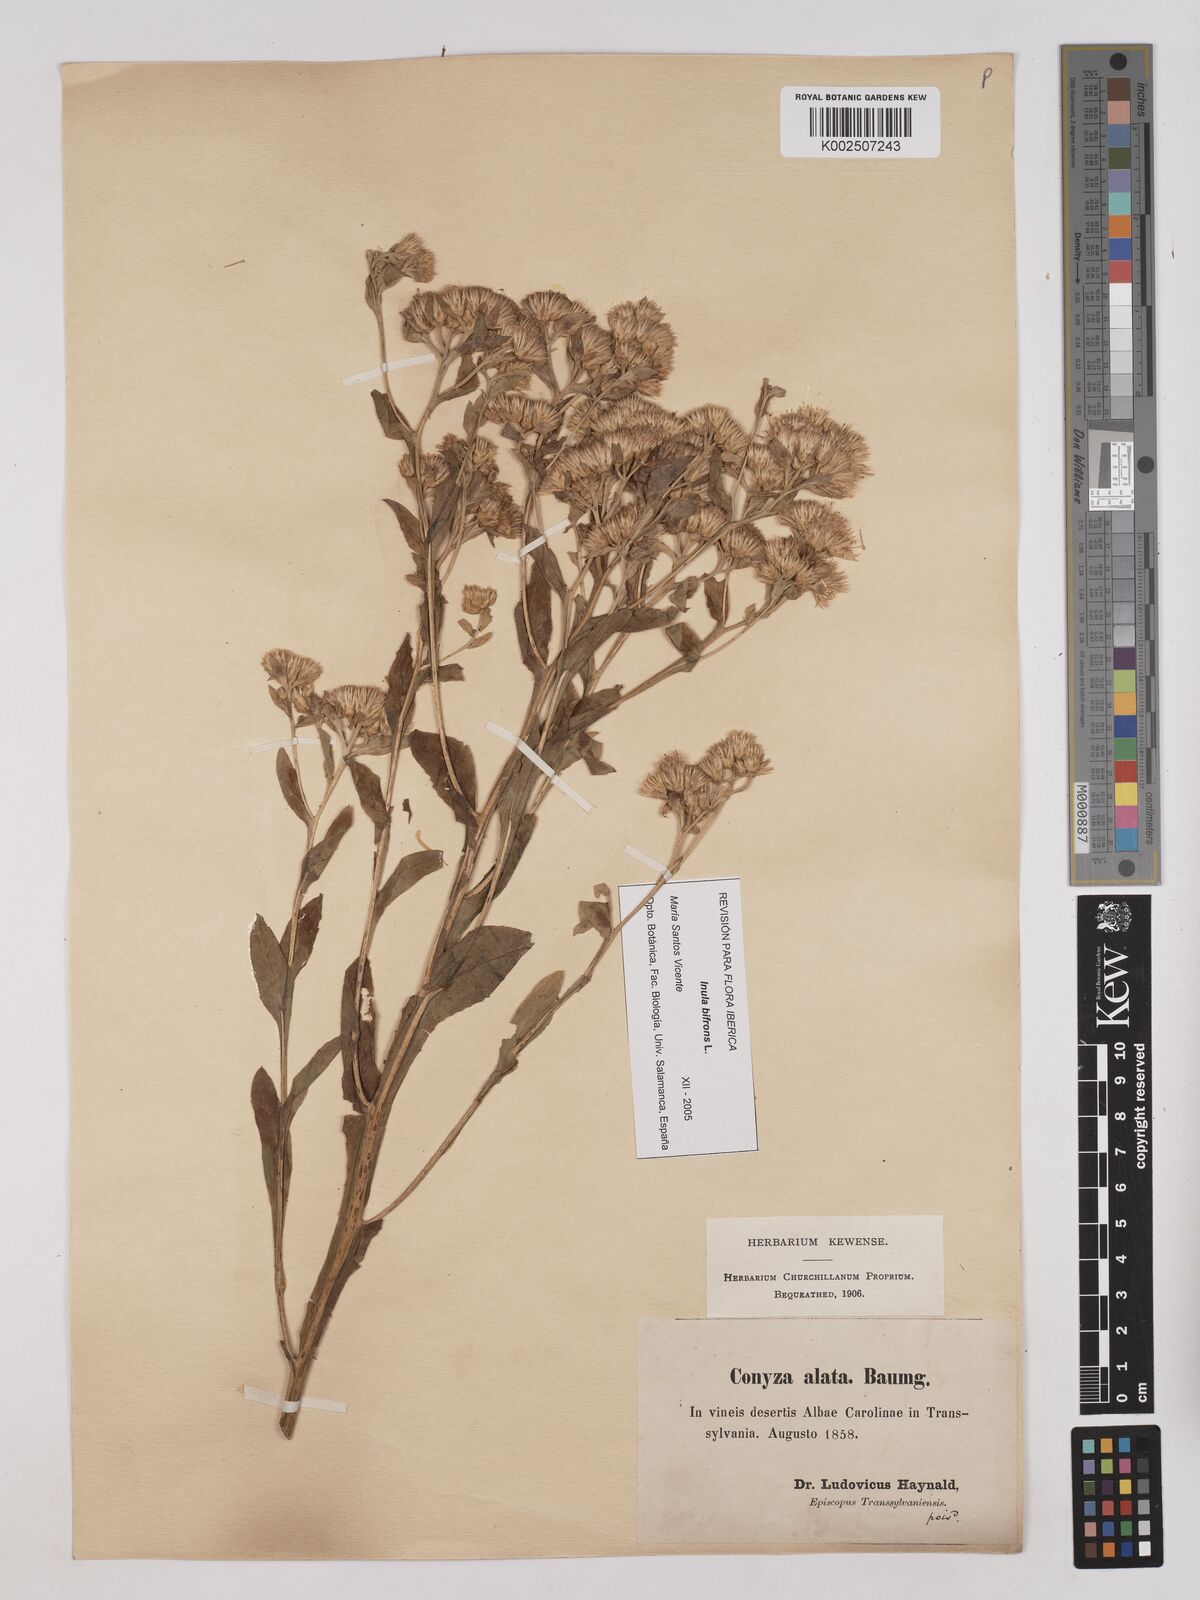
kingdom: Plantae
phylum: Tracheophyta
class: Magnoliopsida
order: Asterales
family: Asteraceae
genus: Pentanema
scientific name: Pentanema bifrons
